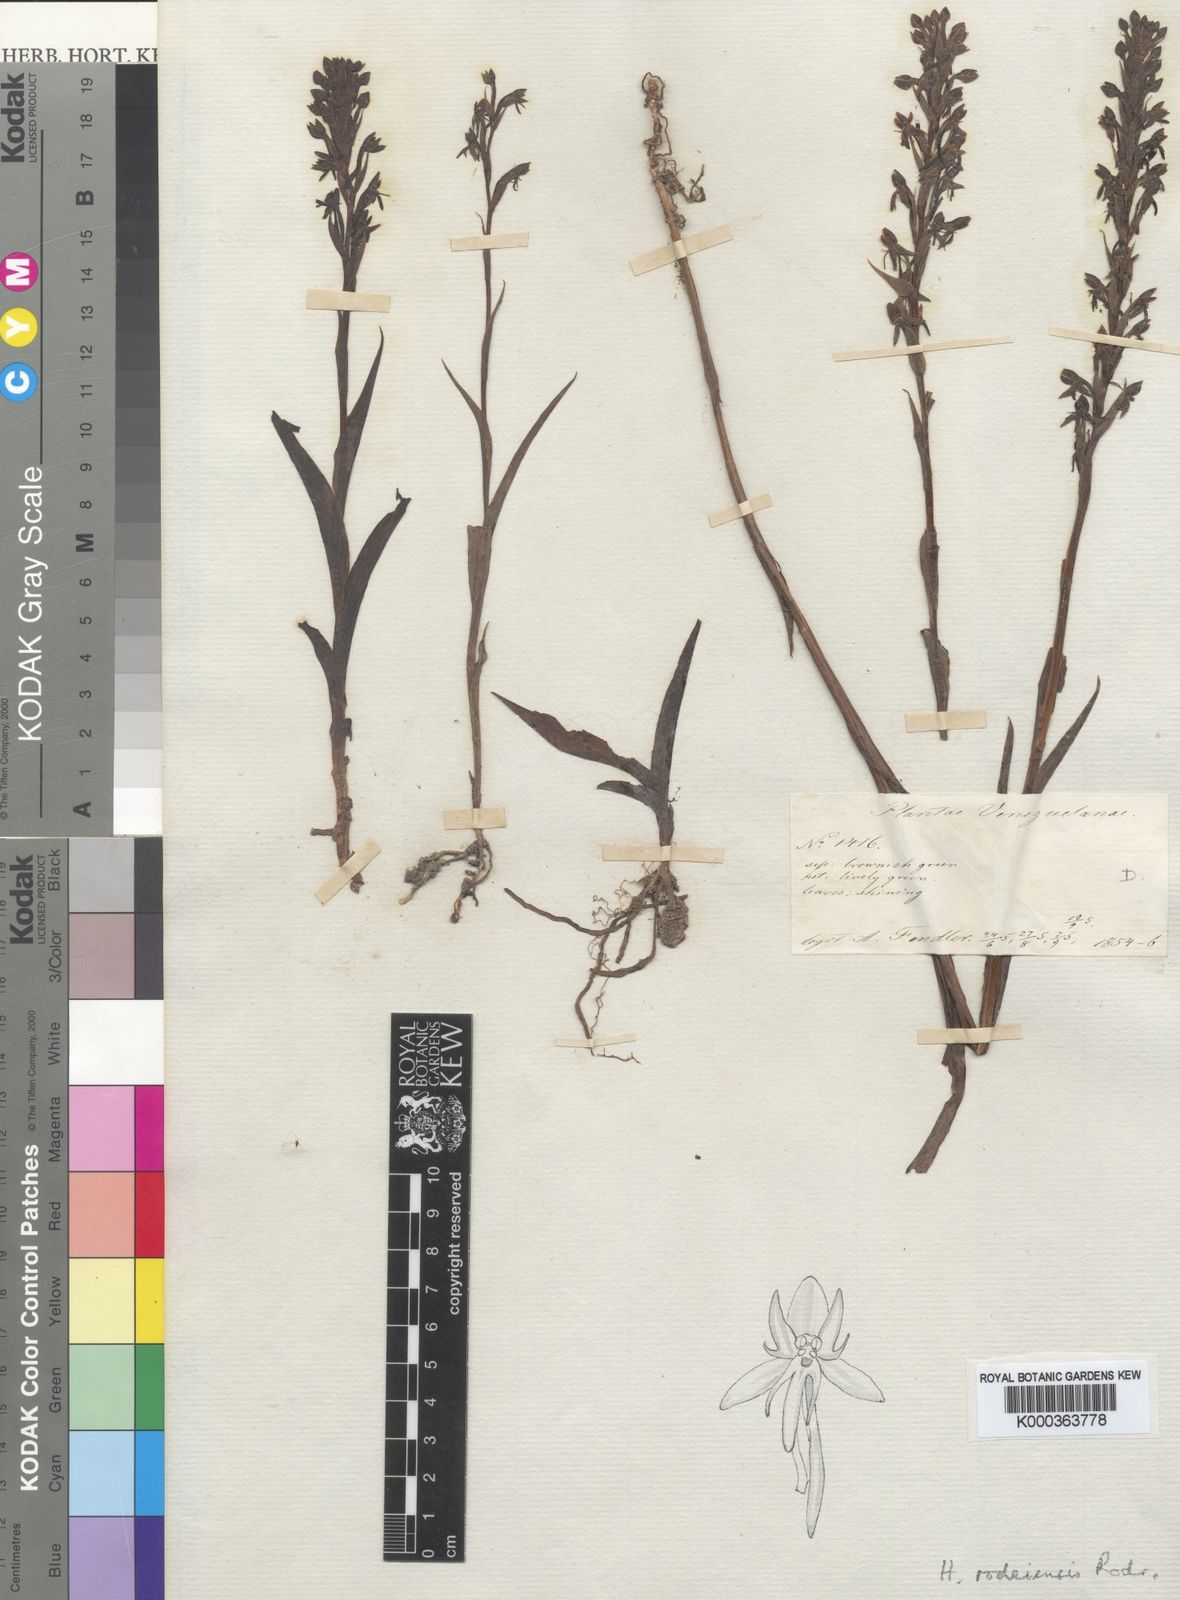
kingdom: Plantae
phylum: Tracheophyta
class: Liliopsida
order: Asparagales
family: Orchidaceae
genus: Habenaria
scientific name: Habenaria rodeiensis
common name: Bog orchid
